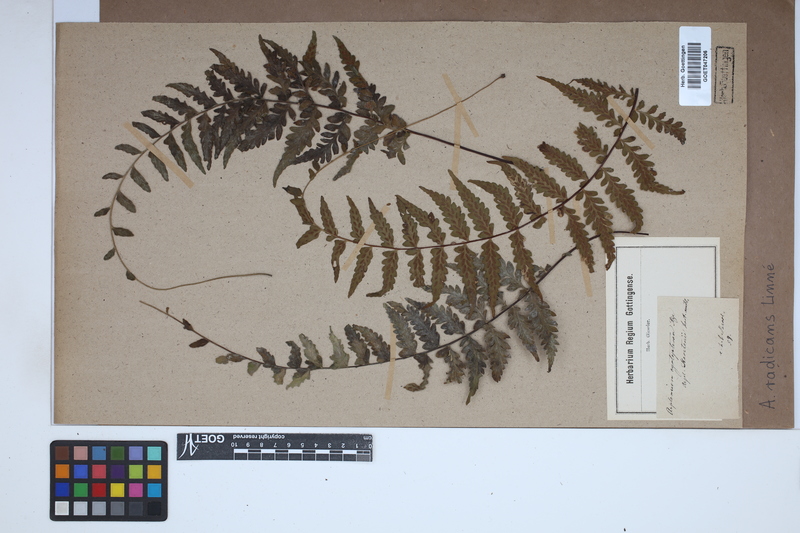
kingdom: Plantae
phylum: Tracheophyta
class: Polypodiopsida
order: Polypodiales
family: Aspleniaceae
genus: Asplenium
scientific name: Asplenium radicans
